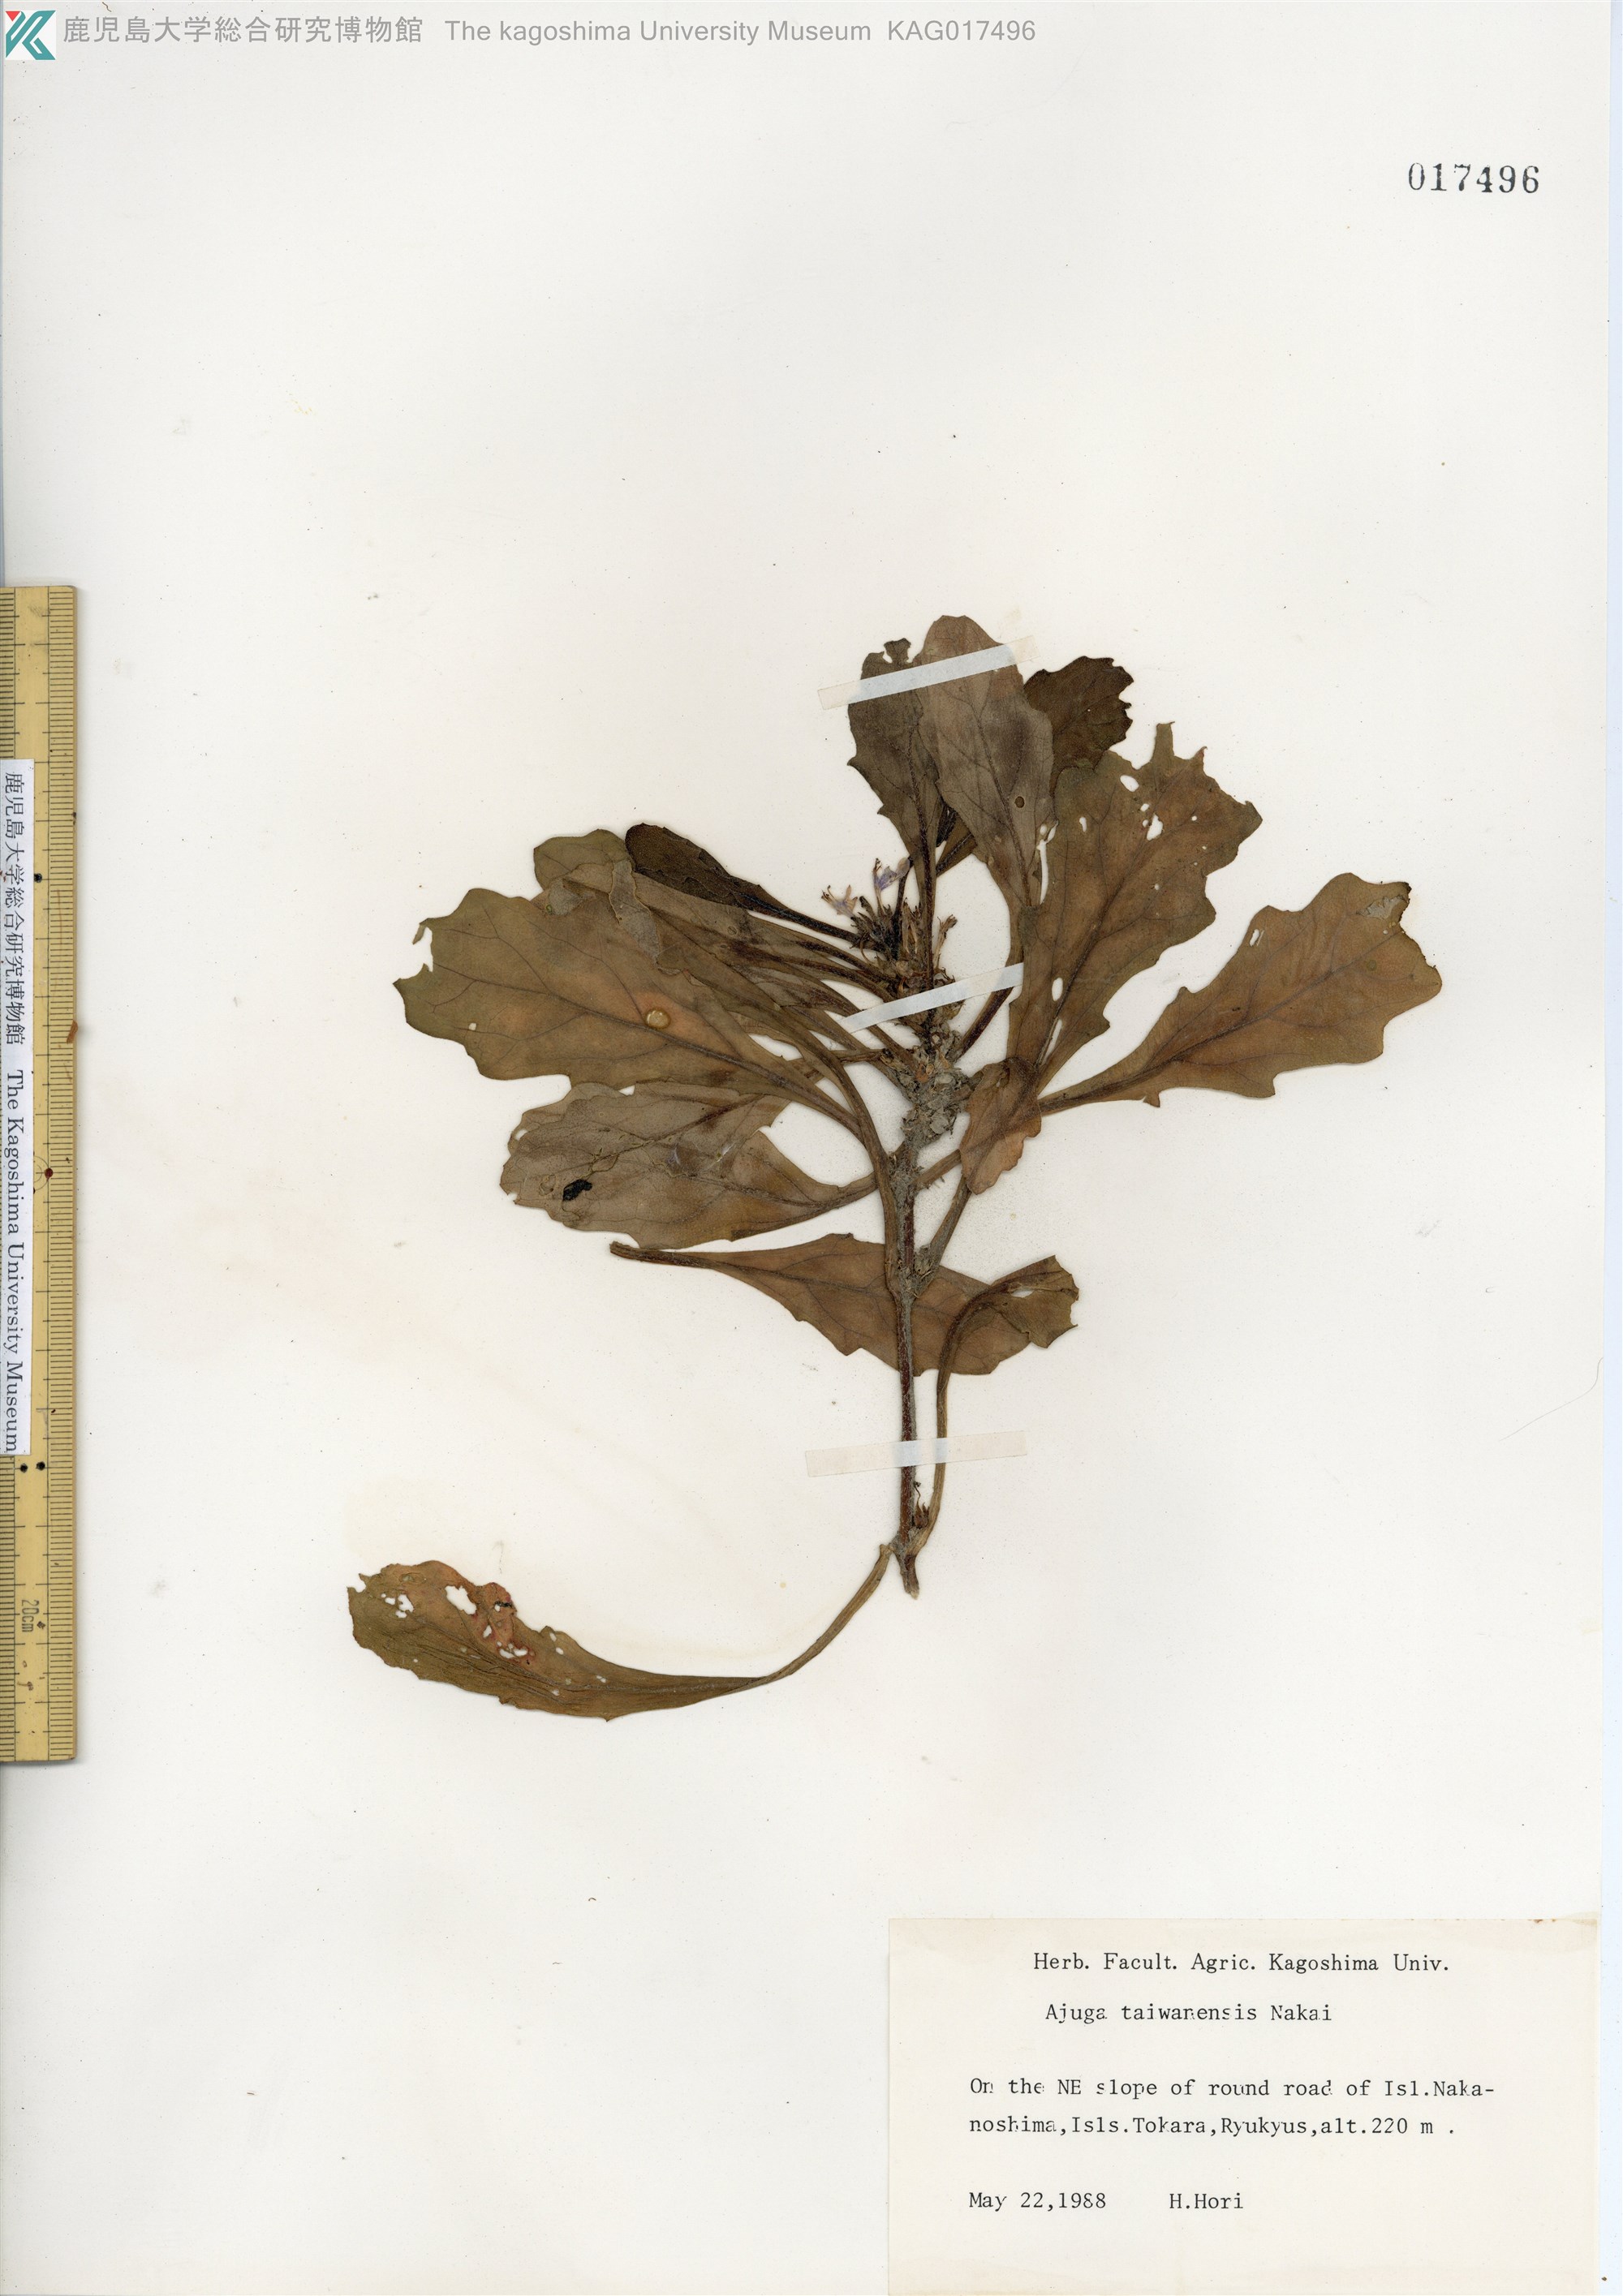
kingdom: Plantae
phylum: Tracheophyta
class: Magnoliopsida
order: Lamiales
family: Lamiaceae
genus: Ajuga
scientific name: Ajuga taiwanensis
